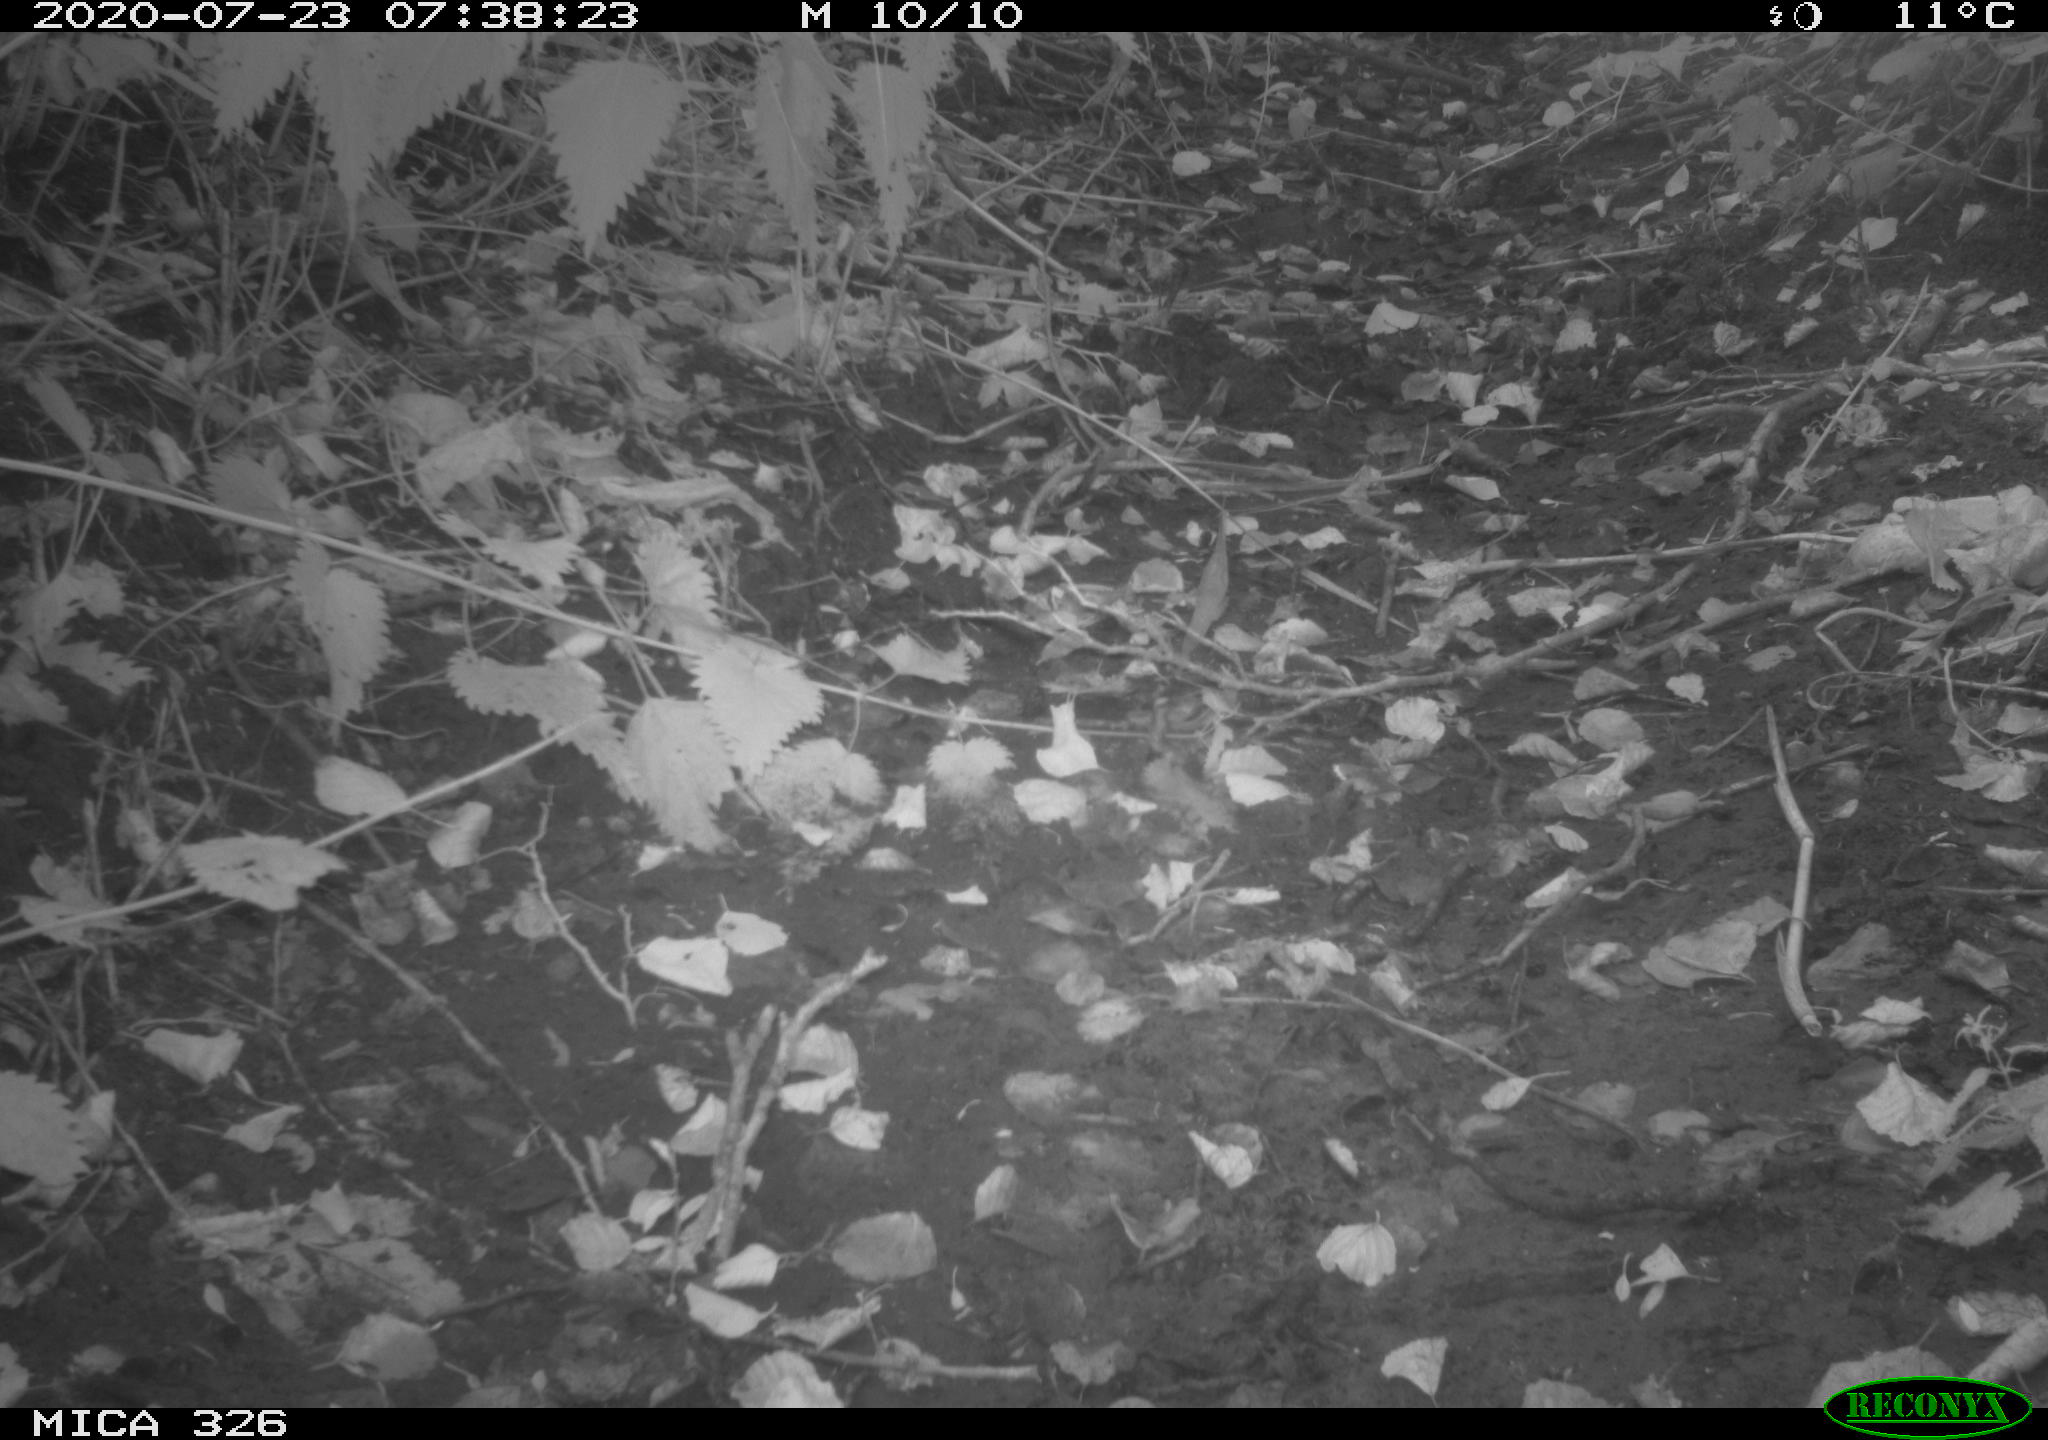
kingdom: Animalia
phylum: Chordata
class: Mammalia
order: Rodentia
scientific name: Rodentia
